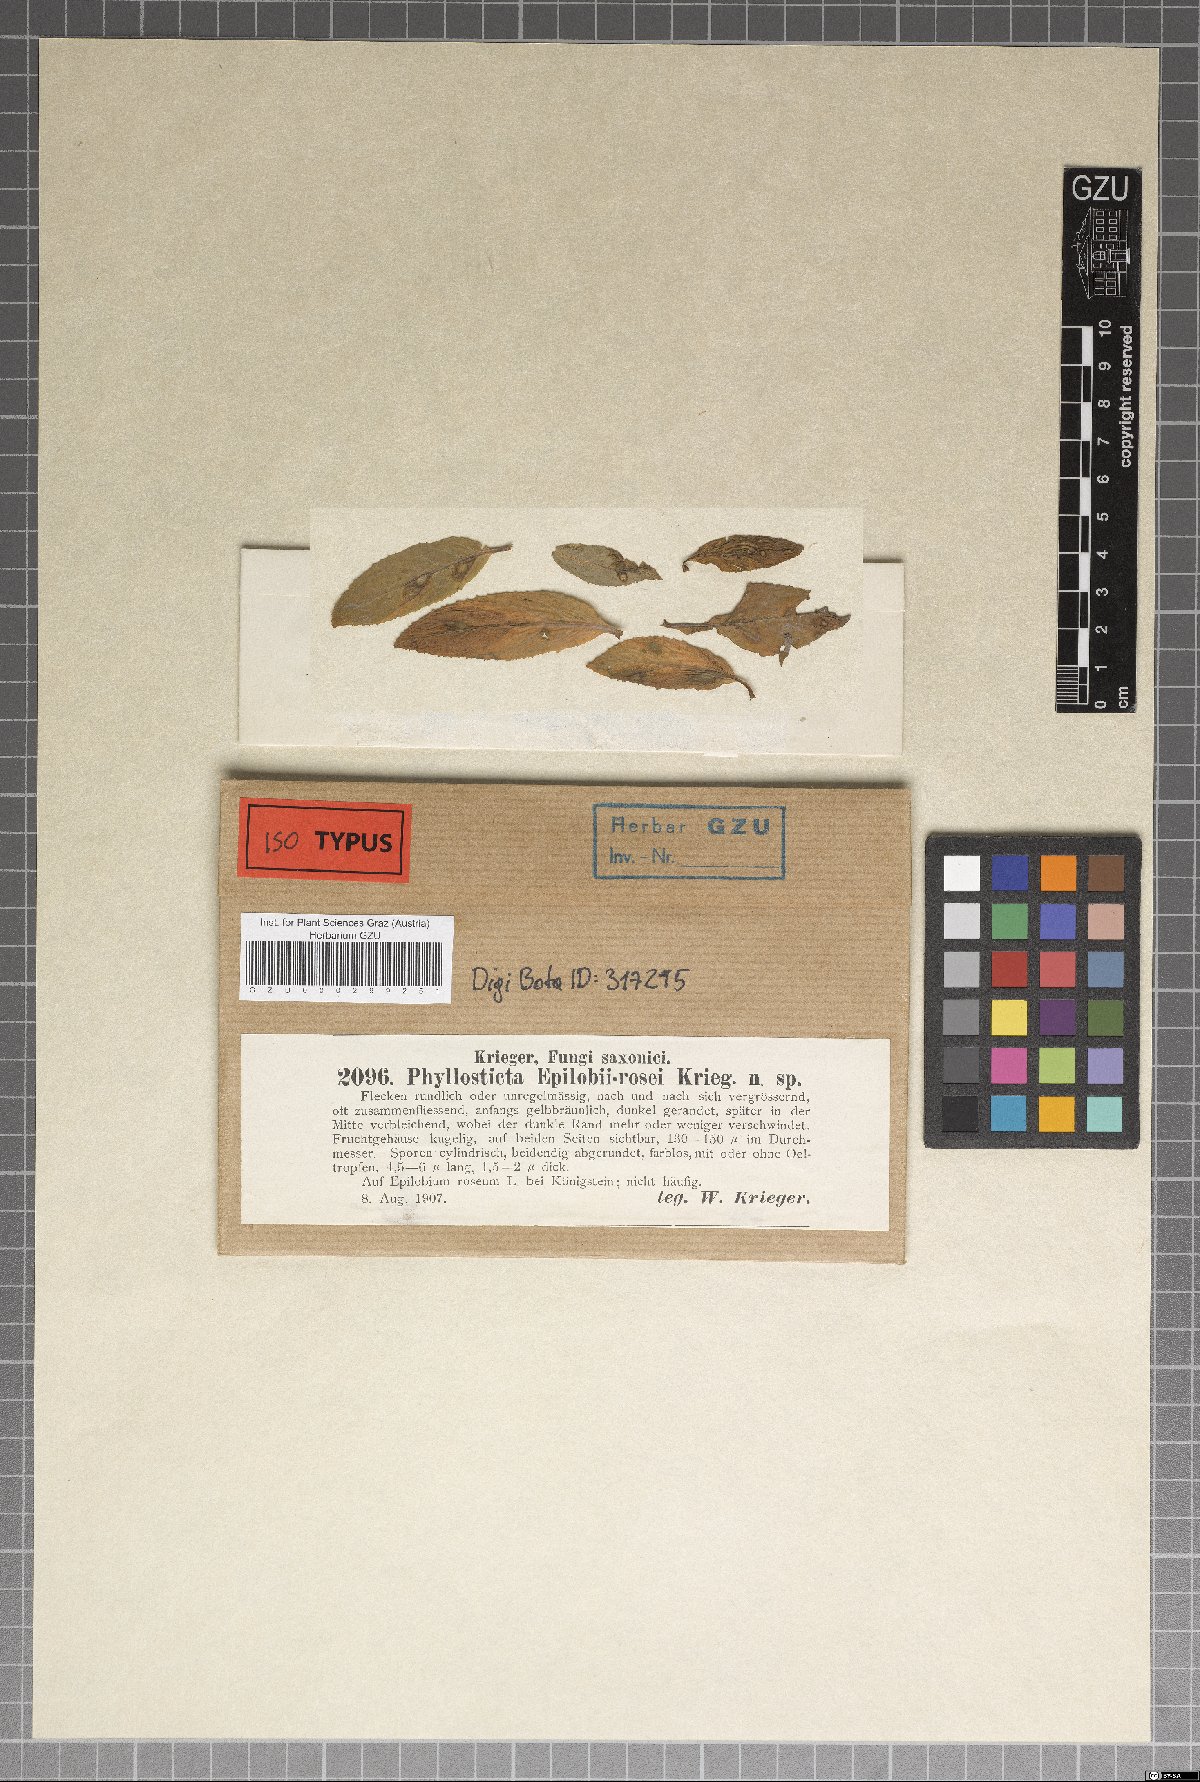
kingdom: Fungi
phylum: Ascomycota
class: Dothideomycetes
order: Botryosphaeriales
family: Phyllostictaceae
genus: Phyllosticta
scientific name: Phyllosticta epilobii-rosei
